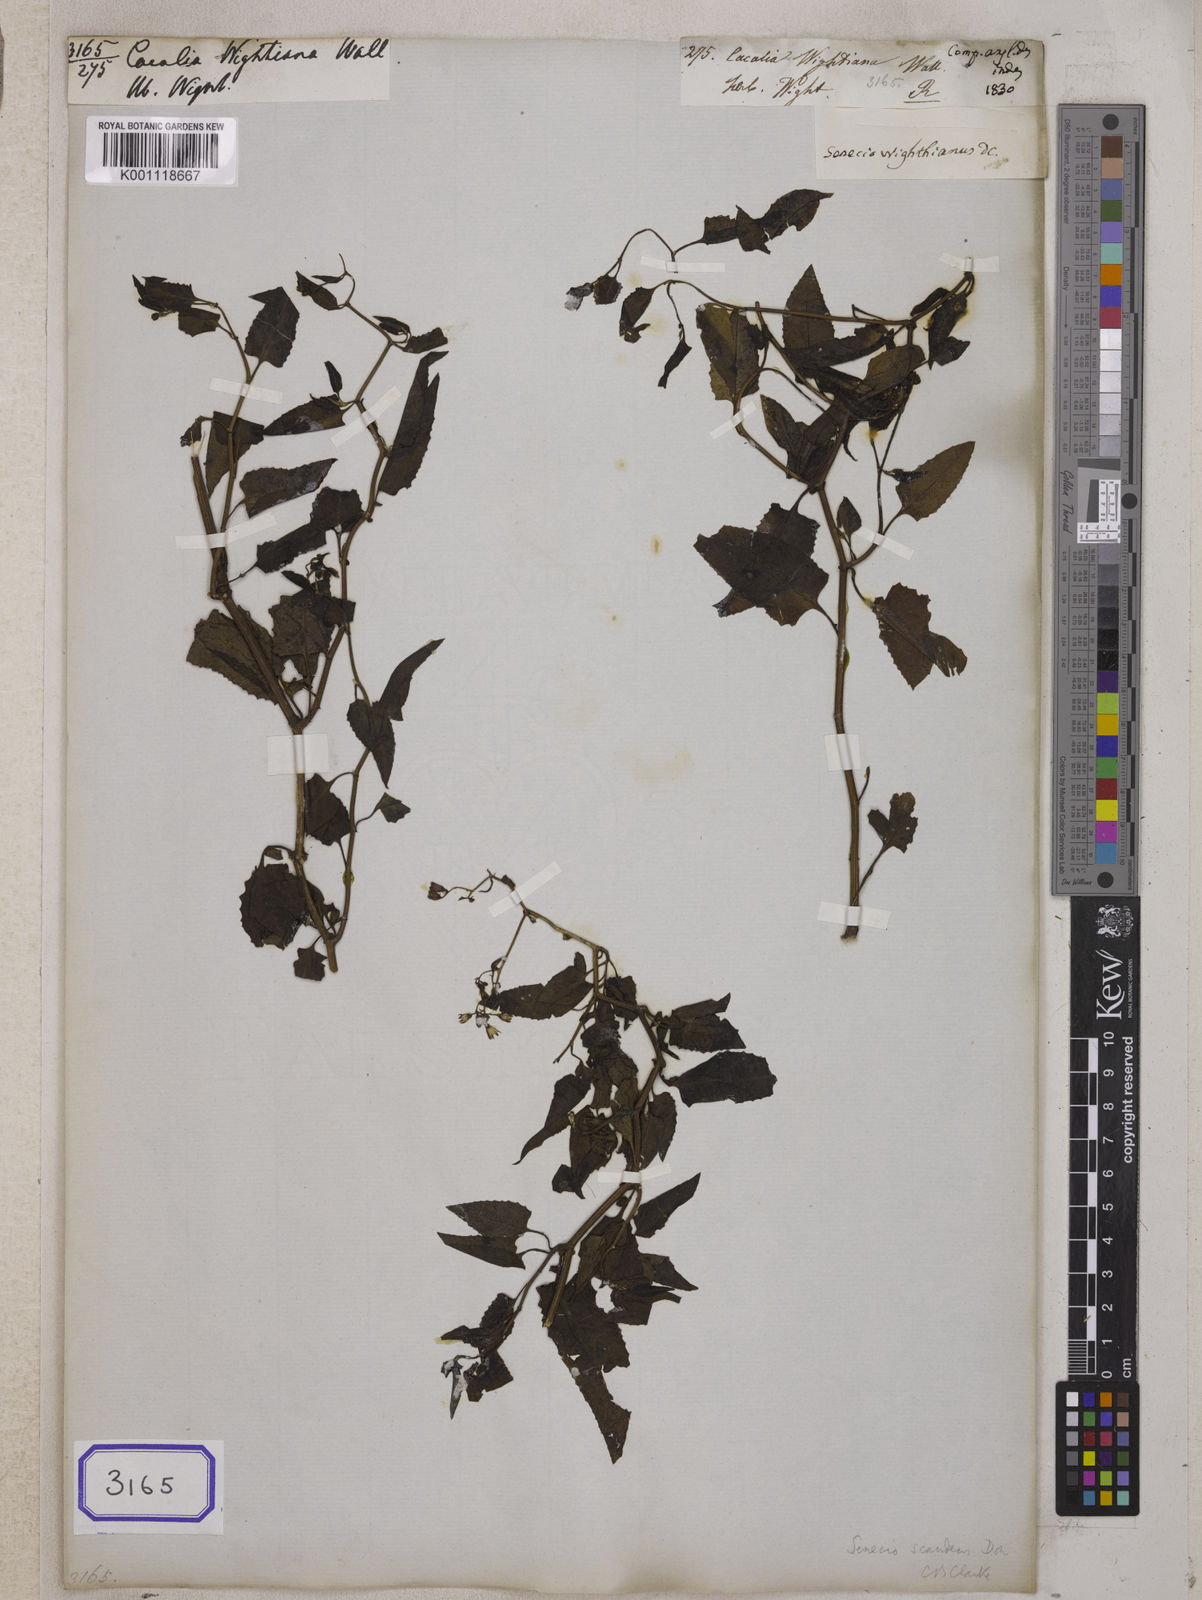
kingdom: Plantae
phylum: Tracheophyta
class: Magnoliopsida
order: Asterales
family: Asteraceae
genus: Adenostyles
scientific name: Adenostyles Cacalia scandens
